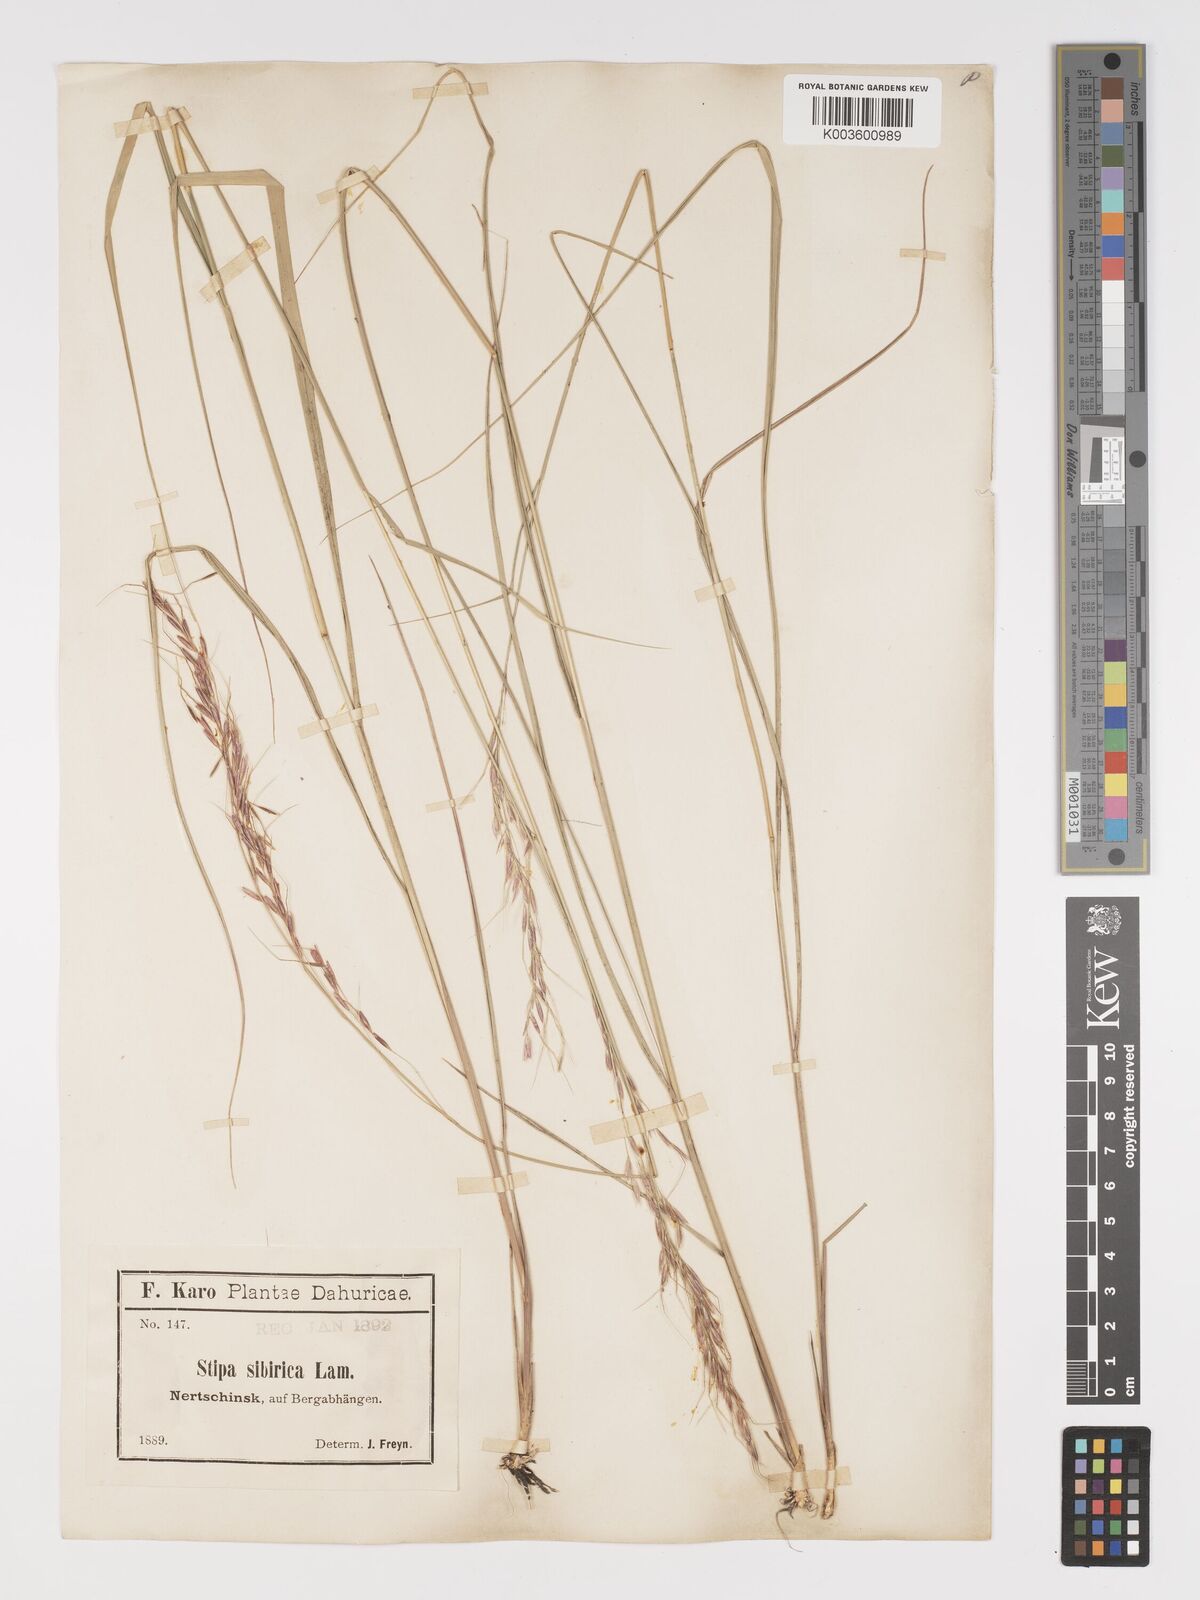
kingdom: Plantae
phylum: Tracheophyta
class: Liliopsida
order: Poales
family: Poaceae
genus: Achnatherum
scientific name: Achnatherum sibiricum
